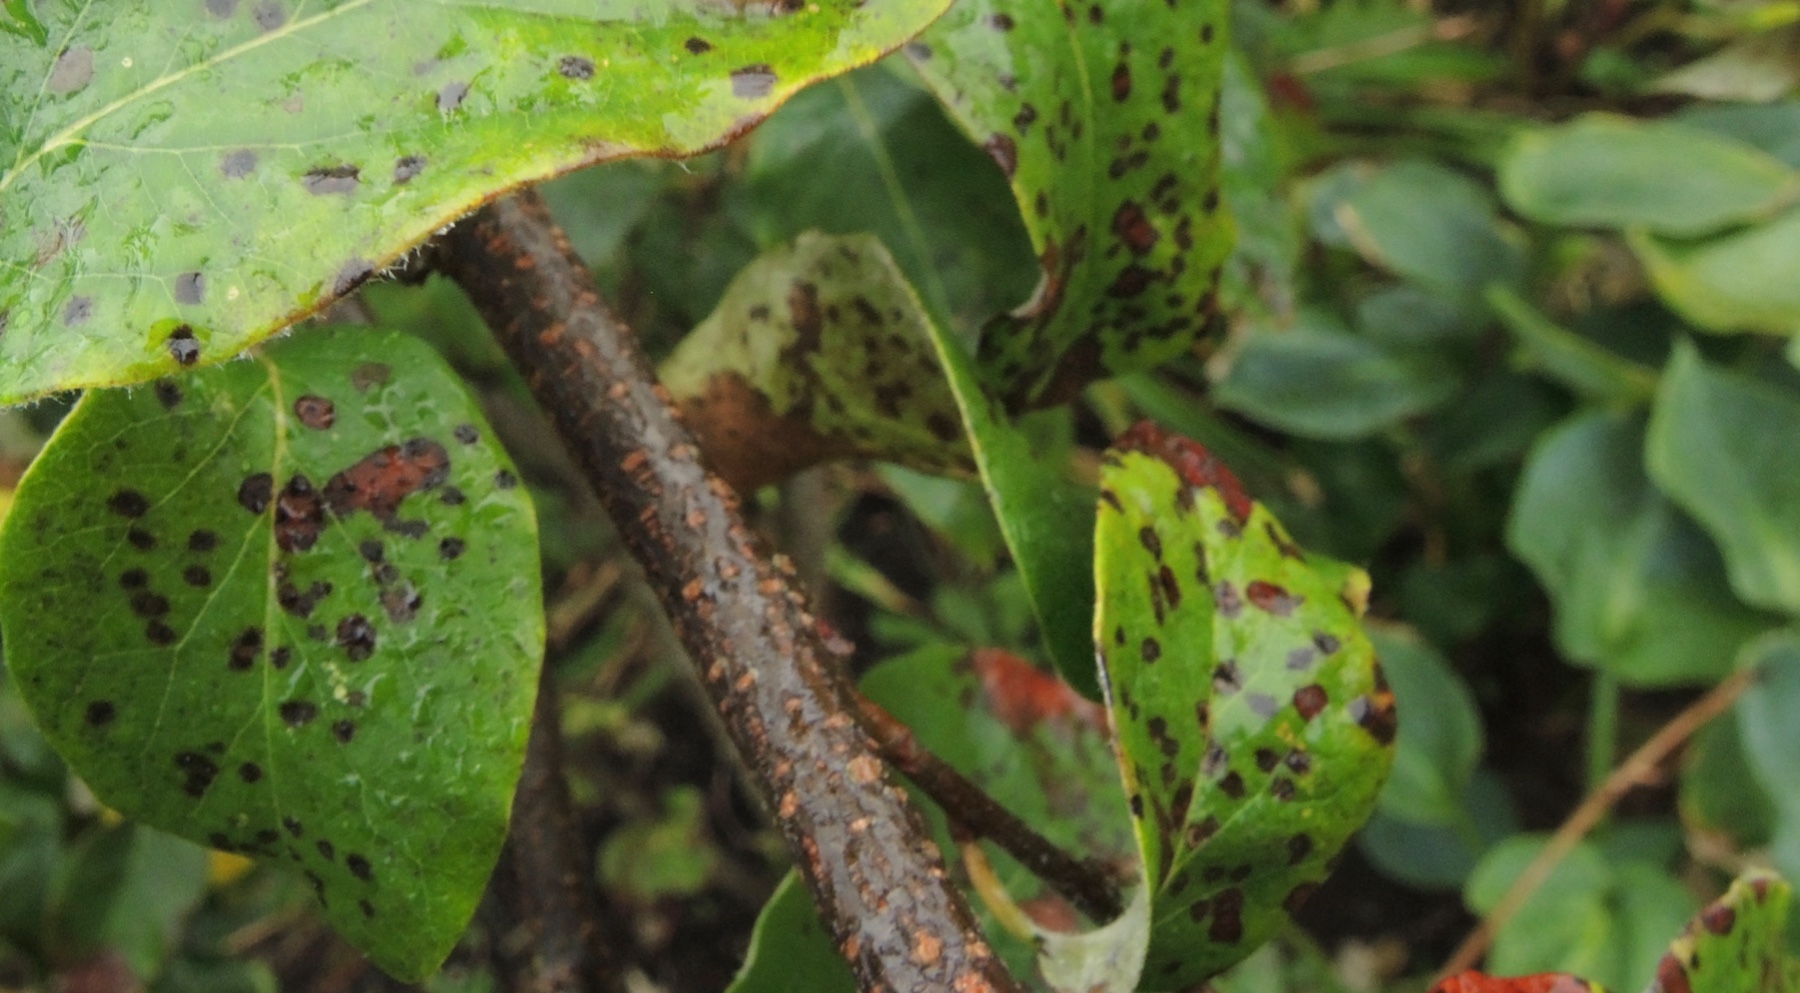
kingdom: Fungi
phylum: Ascomycota
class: Leotiomycetes
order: Helotiales
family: Drepanopezizaceae
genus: Diplocarpon
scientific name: Diplocarpon mespili
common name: Quince leaf blight
